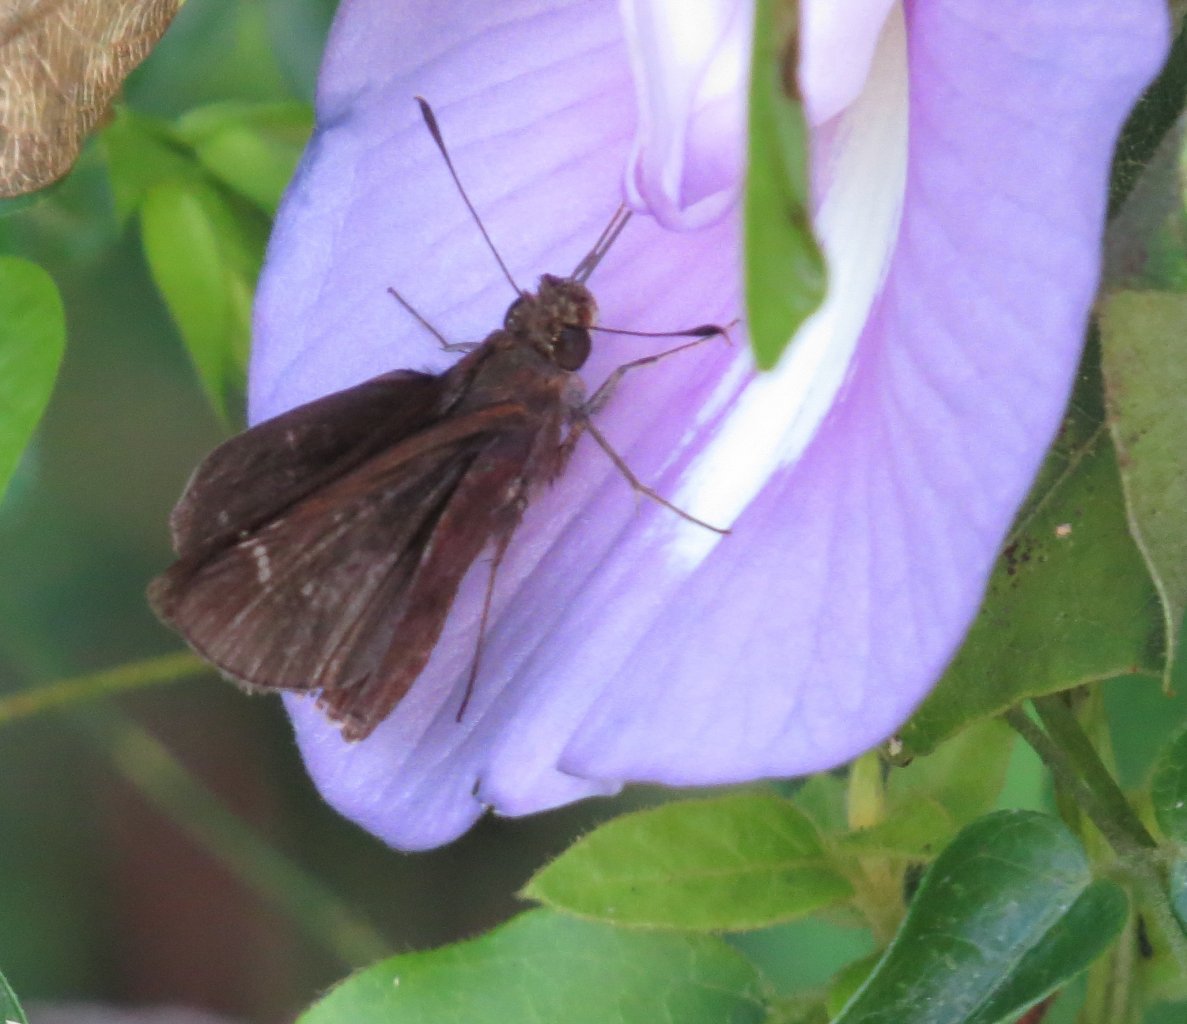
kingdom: Animalia
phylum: Arthropoda
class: Insecta
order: Lepidoptera
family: Hesperiidae
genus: Lerema
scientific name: Lerema accius
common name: Clouded Skipper
